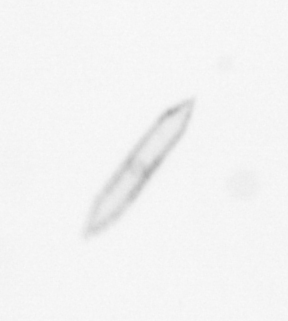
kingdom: Chromista
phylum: Ochrophyta
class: Bacillariophyceae
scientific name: Bacillariophyceae
